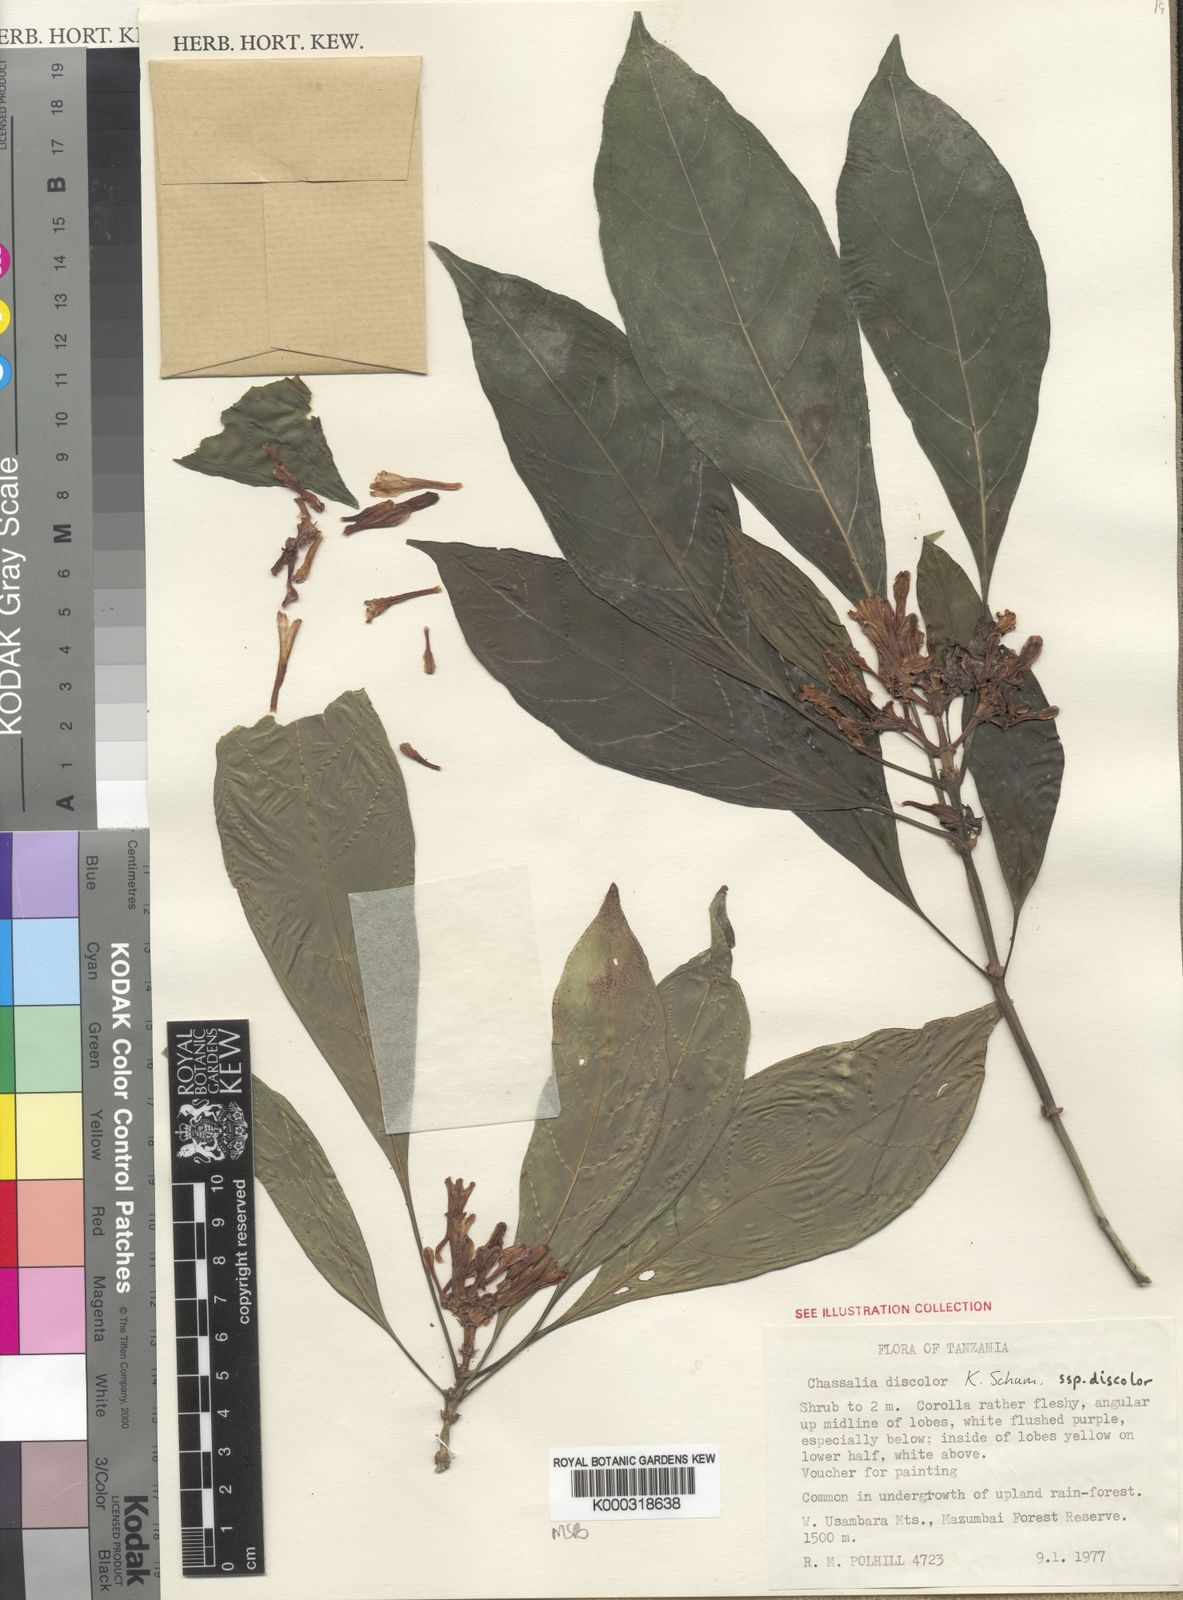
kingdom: Plantae
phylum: Tracheophyta
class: Magnoliopsida
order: Gentianales
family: Rubiaceae
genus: Chassalia
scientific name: Chassalia discolor
